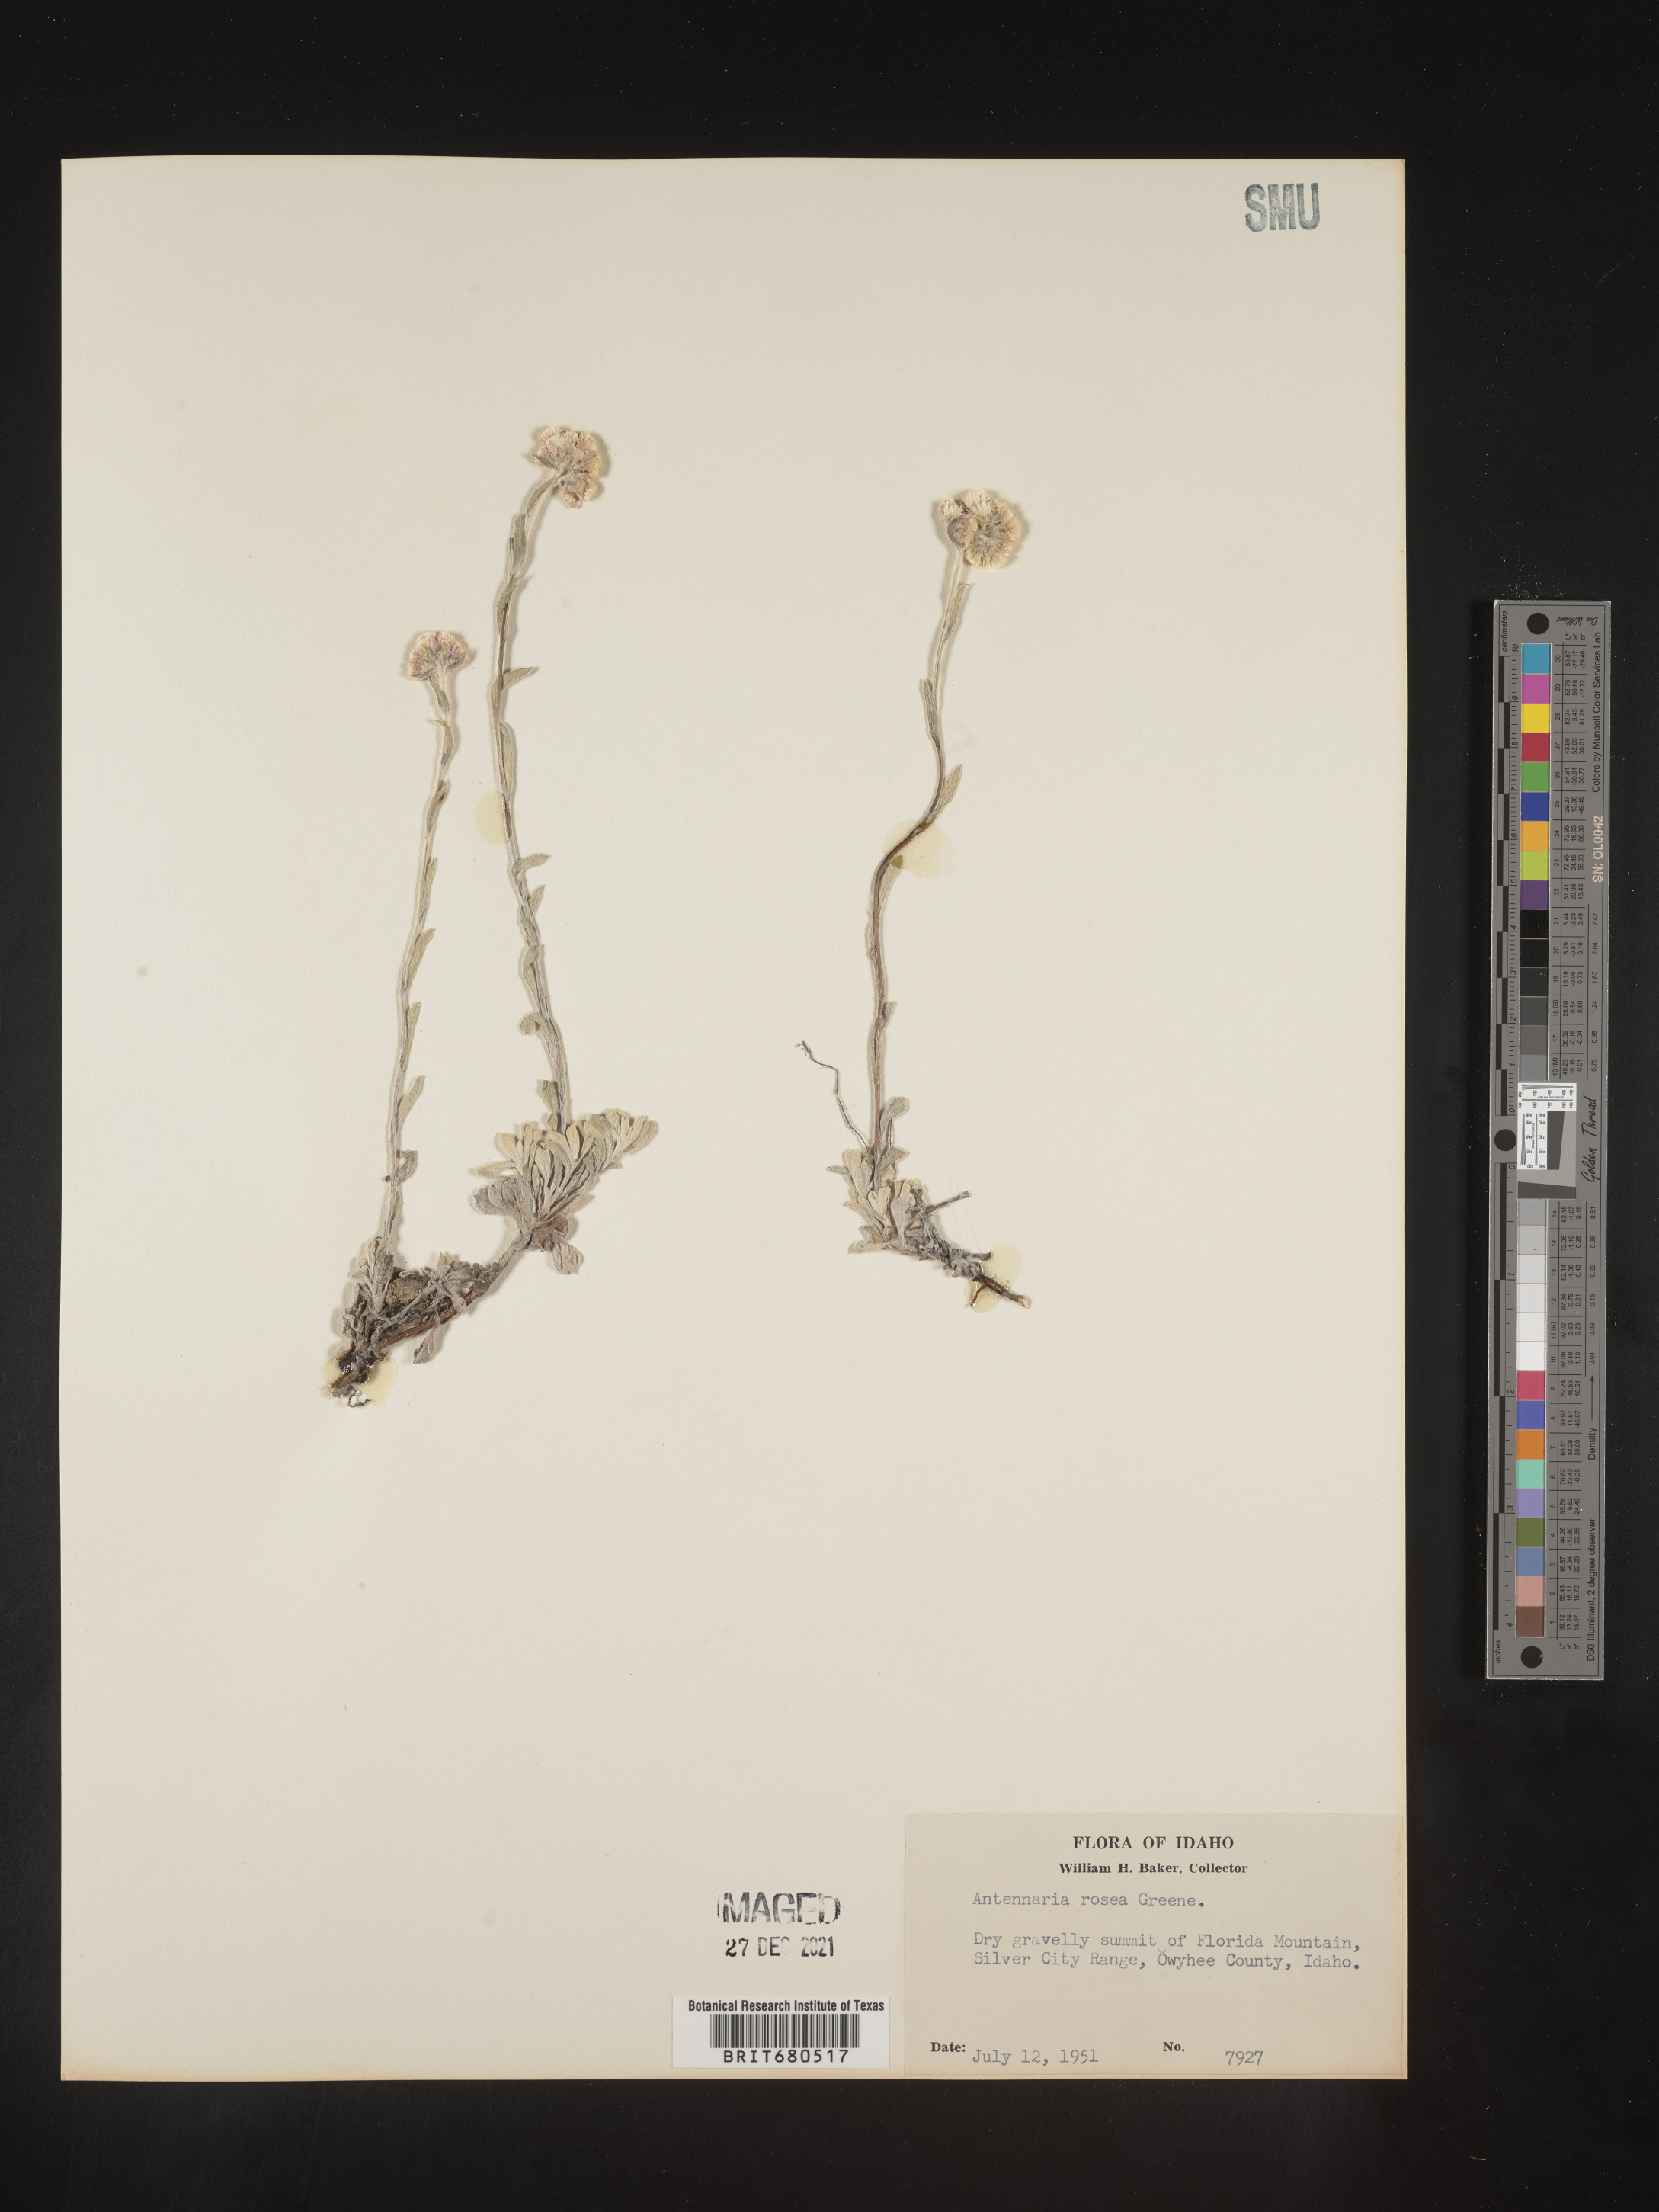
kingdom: Plantae
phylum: Tracheophyta
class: Magnoliopsida
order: Asterales
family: Asteraceae
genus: Antennaria
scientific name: Antennaria rosea
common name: Rosy pussytoes
